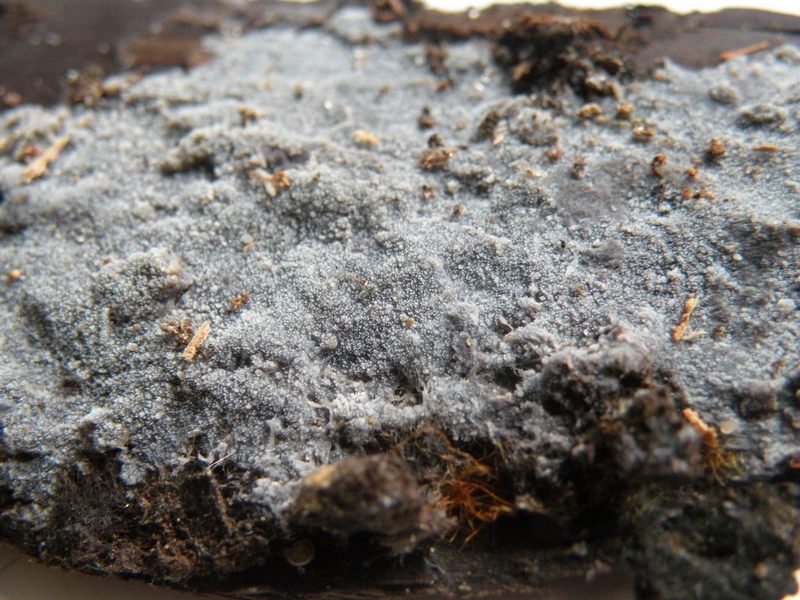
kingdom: Fungi
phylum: Basidiomycota
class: Agaricomycetes
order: Polyporales
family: Meruliaceae
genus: Scopuloides
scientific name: Scopuloides rimosa
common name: dughinde
